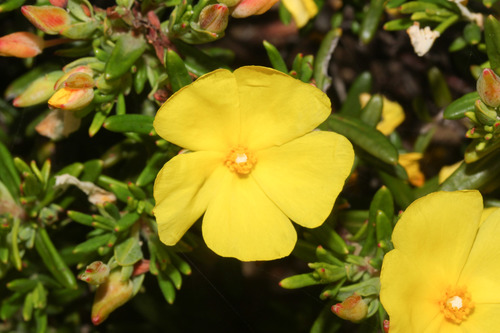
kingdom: Plantae
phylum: Tracheophyta
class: Magnoliopsida
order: Malvales
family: Cistaceae
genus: Halimium
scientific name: Halimium calycinum
